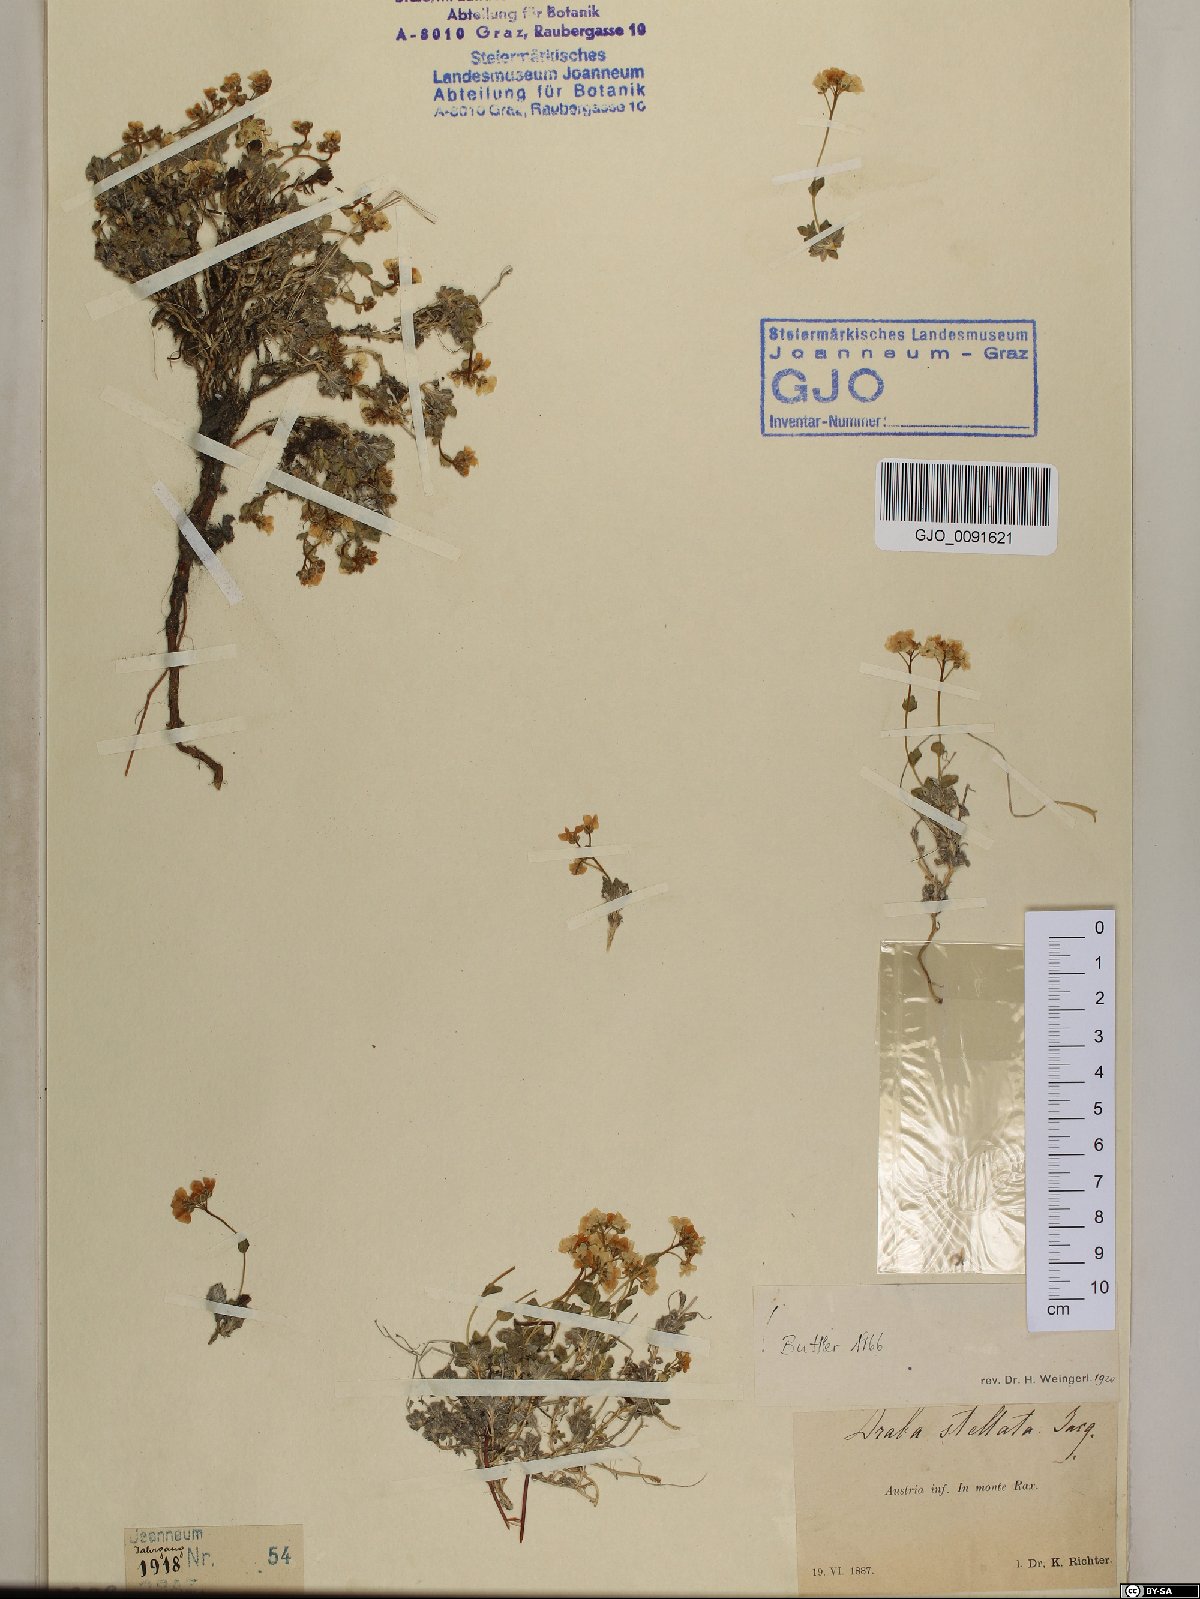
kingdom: Plantae
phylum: Tracheophyta
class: Magnoliopsida
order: Brassicales
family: Brassicaceae
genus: Draba
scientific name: Draba stellata
